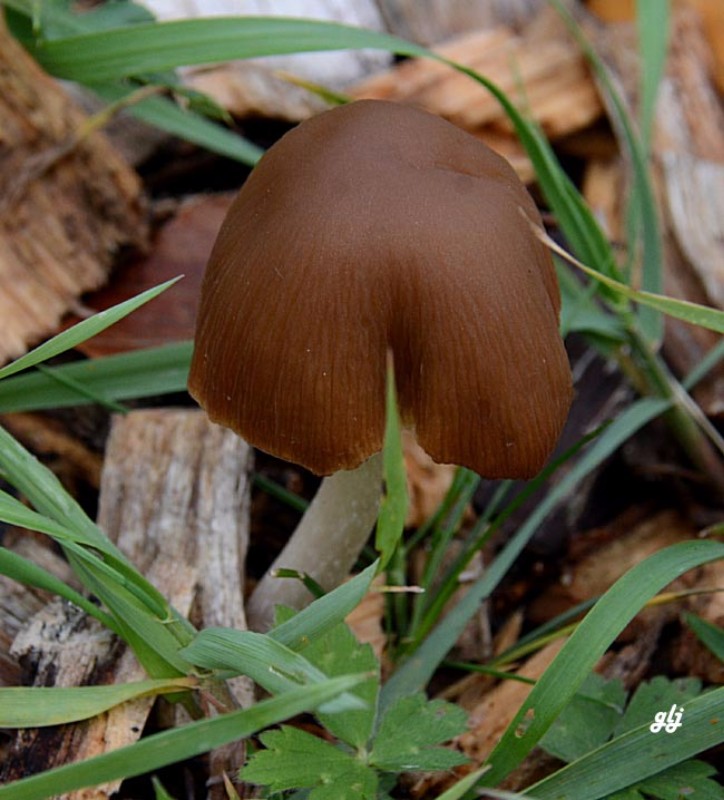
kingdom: Fungi
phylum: Basidiomycota
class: Agaricomycetes
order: Agaricales
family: Psathyrellaceae
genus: Psathyrella
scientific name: Psathyrella fusca
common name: gråbladet mørkhat
